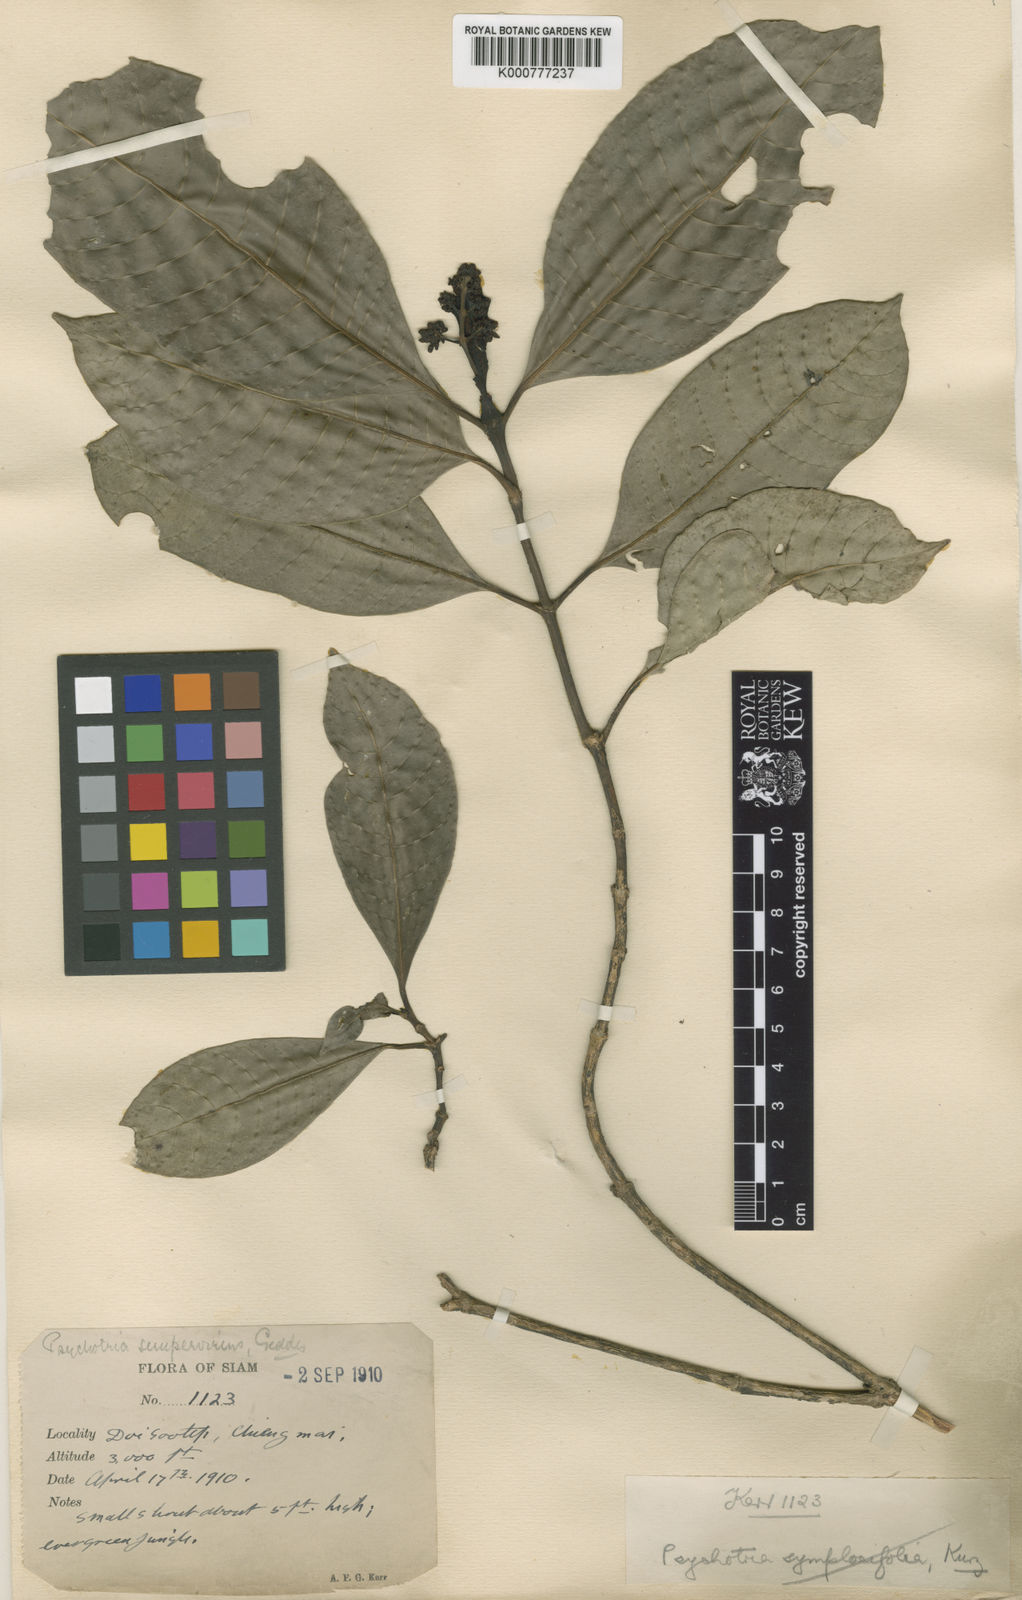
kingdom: Plantae
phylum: Tracheophyta
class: Magnoliopsida
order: Gentianales
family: Rubiaceae
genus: Psychotria
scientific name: Psychotria symplocifolia
